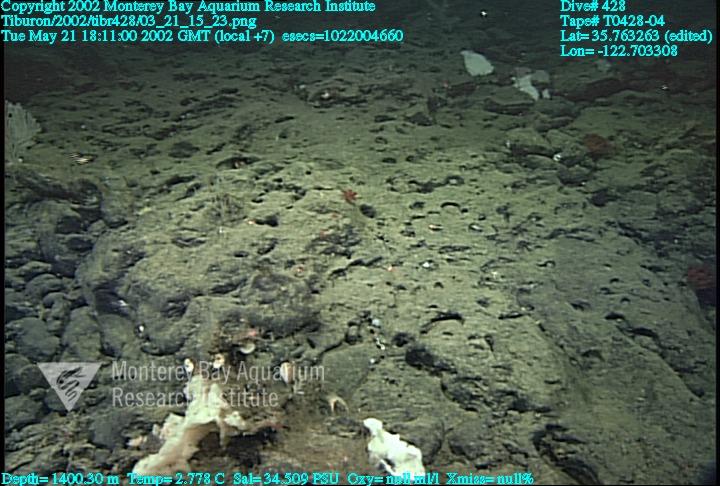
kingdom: Animalia
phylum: Porifera
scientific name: Porifera
